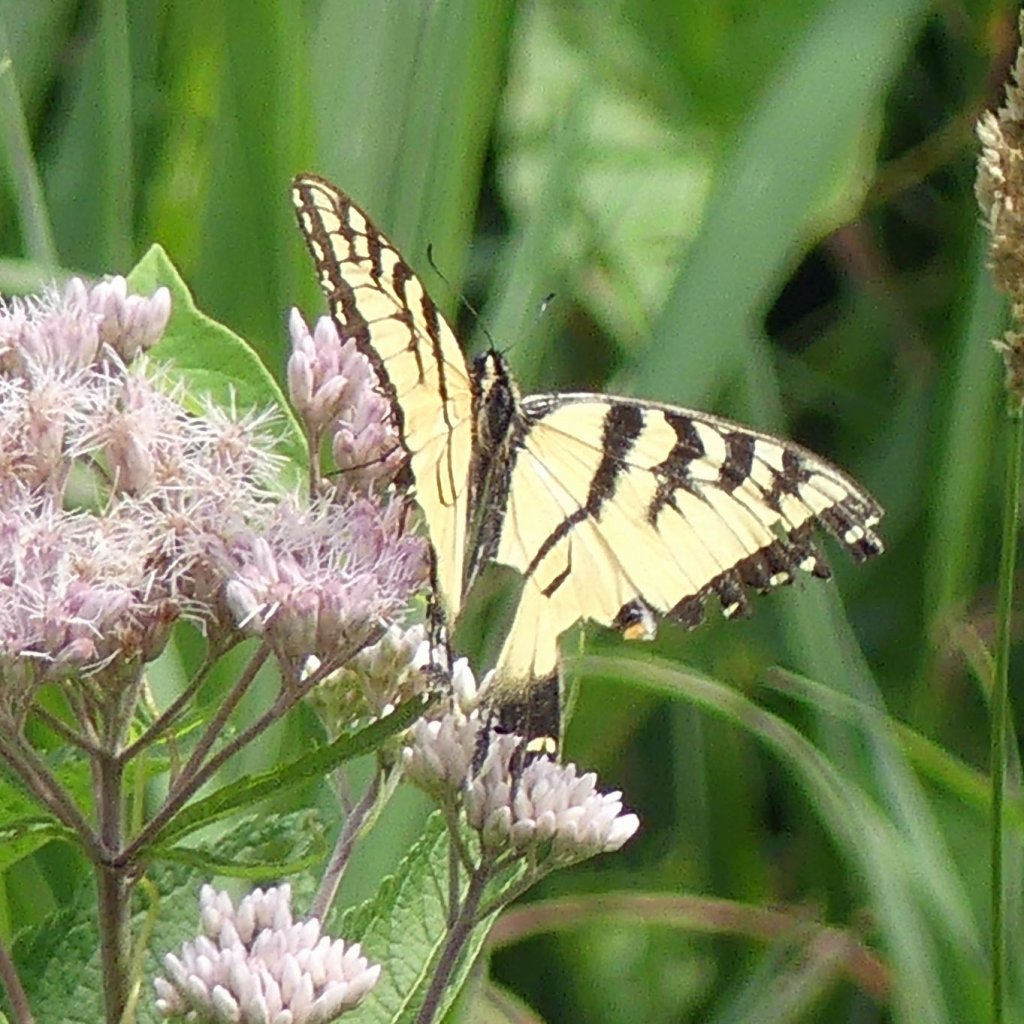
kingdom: Animalia
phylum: Arthropoda
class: Insecta
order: Lepidoptera
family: Papilionidae
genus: Pterourus
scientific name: Pterourus glaucus
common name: Eastern Tiger Swallowtail
